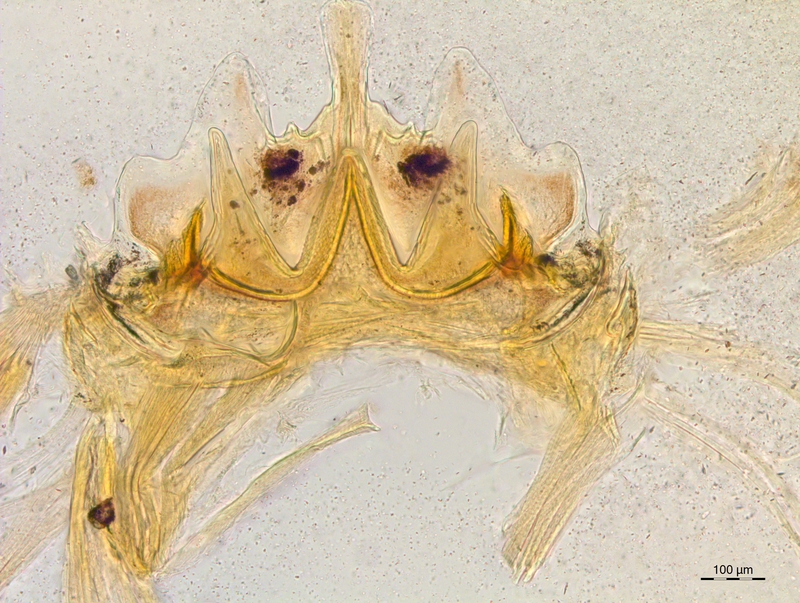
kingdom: Animalia
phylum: Arthropoda
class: Diplopoda
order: Chordeumatida
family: Craspedosomatidae
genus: Craspedosoma
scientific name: Craspedosoma rawlinsii
